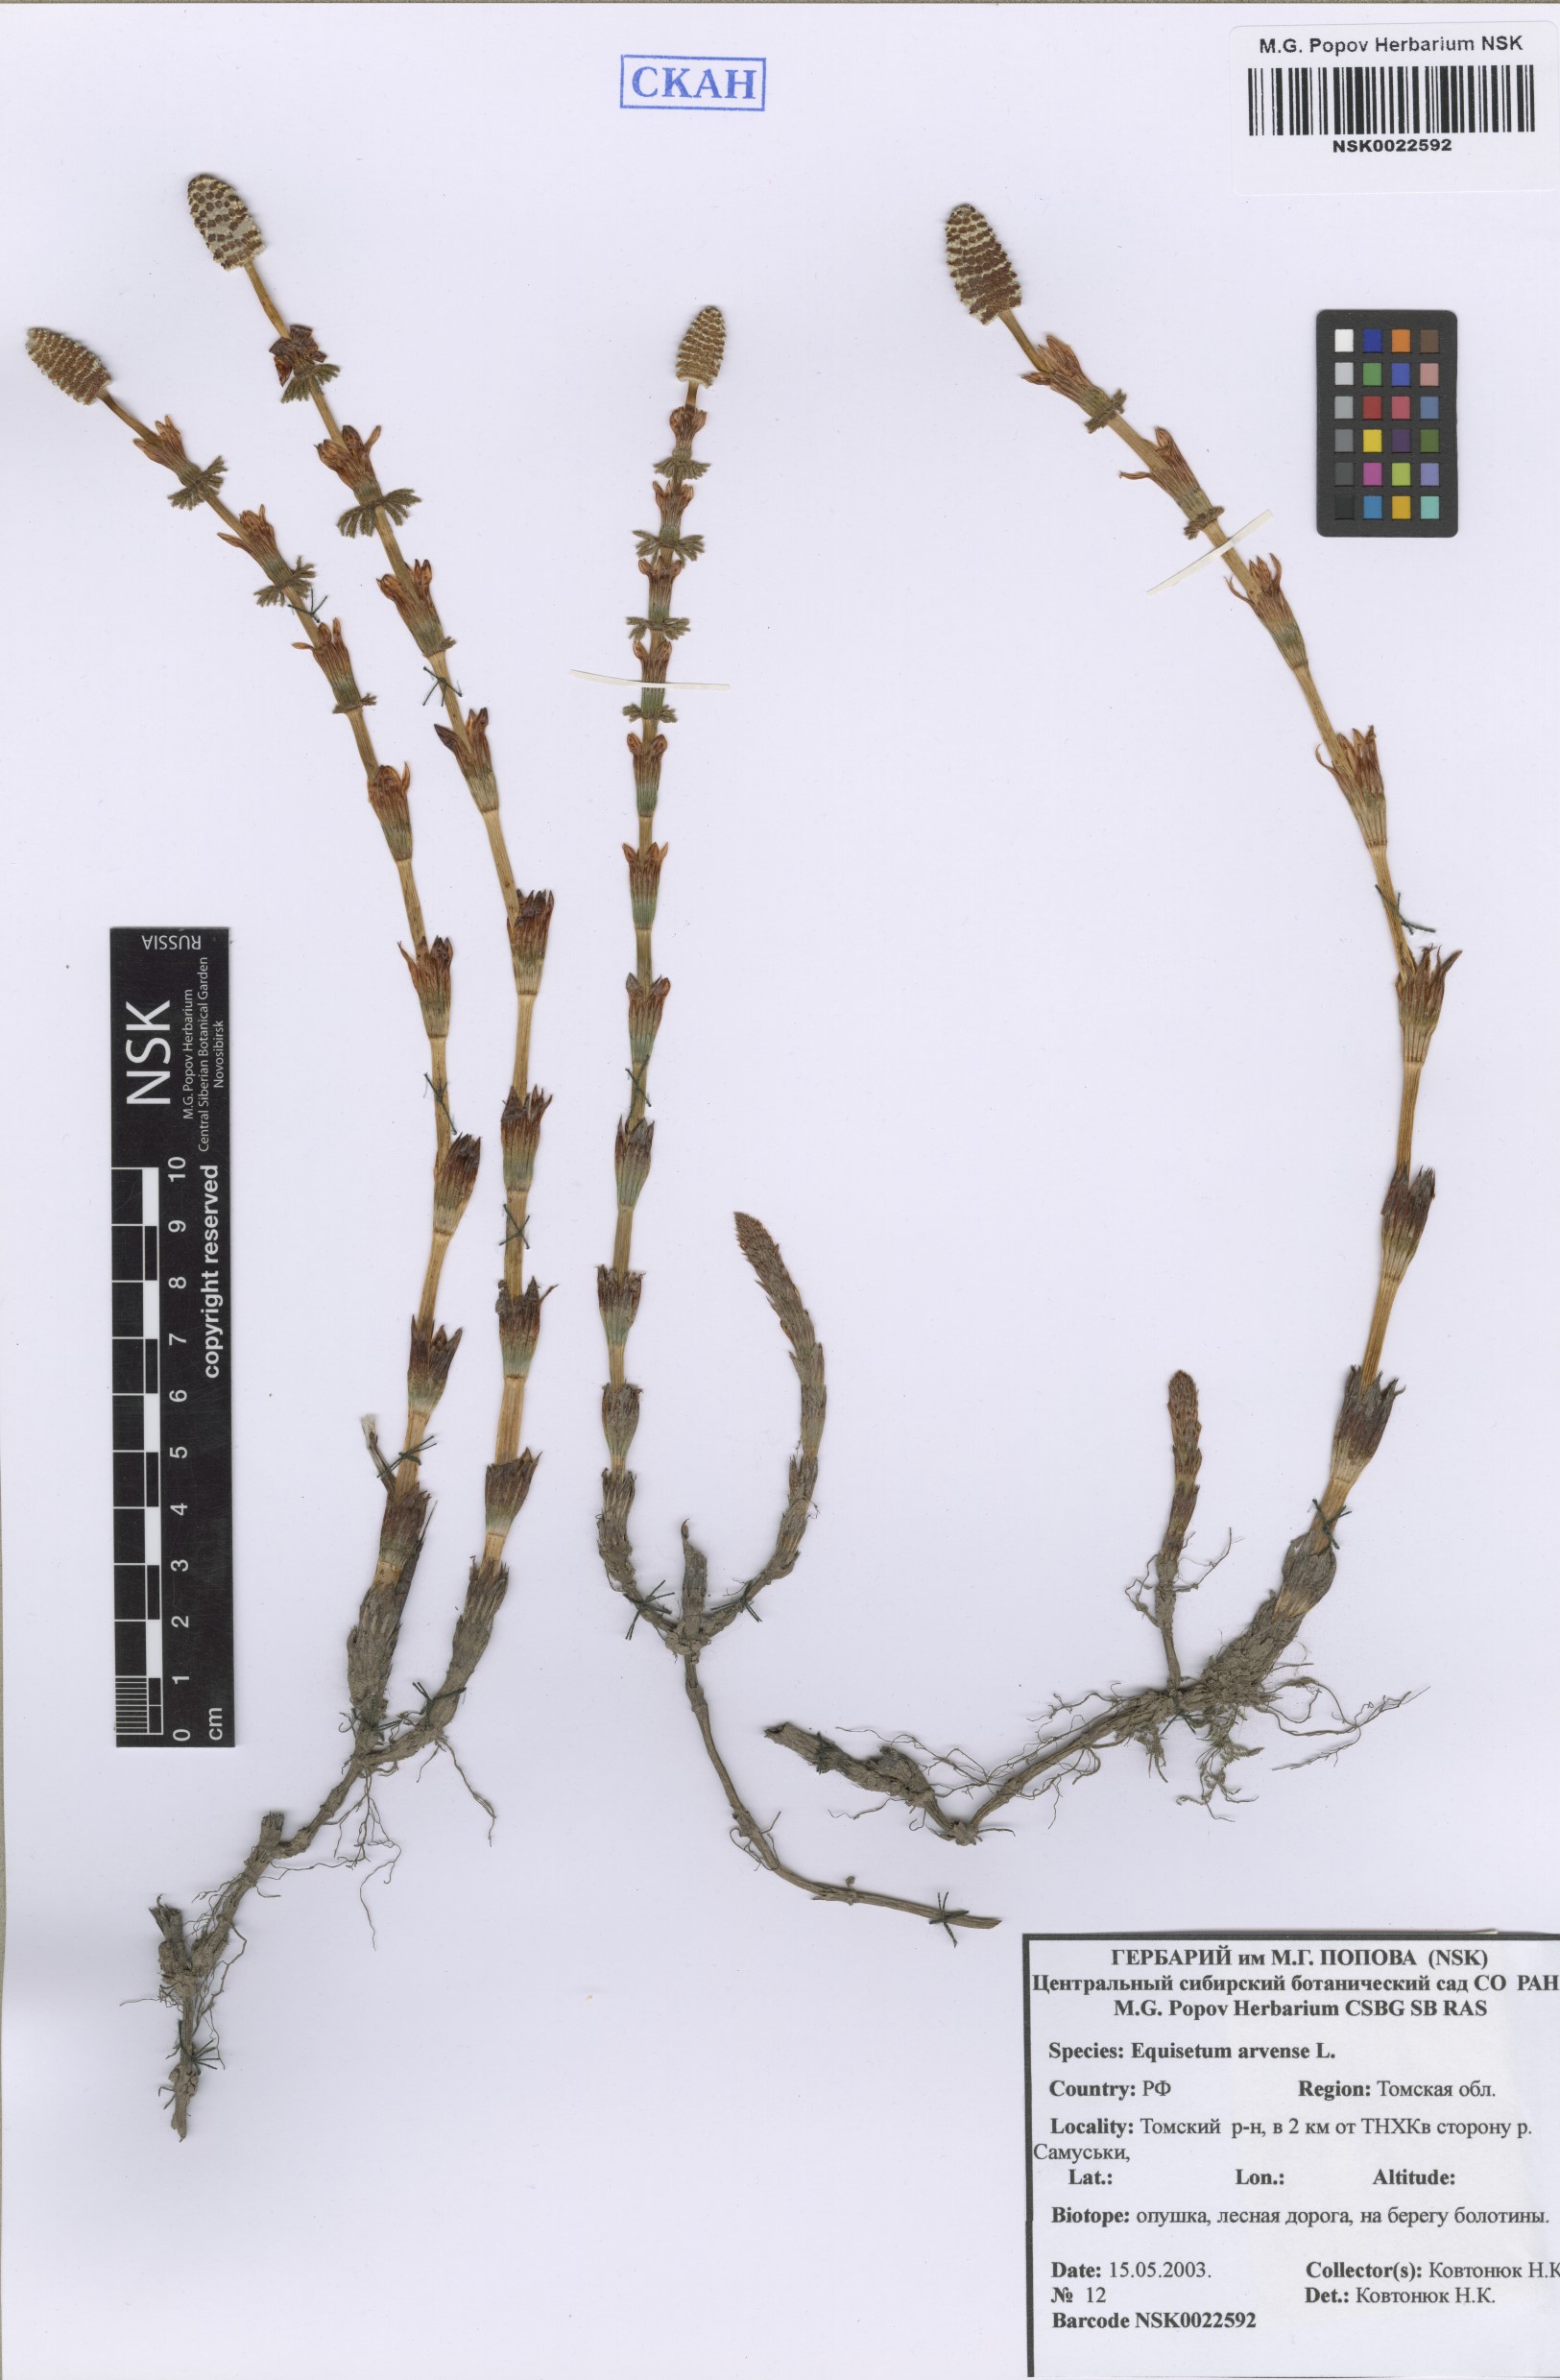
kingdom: Plantae
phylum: Tracheophyta
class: Polypodiopsida
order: Equisetales
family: Equisetaceae
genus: Equisetum
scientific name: Equisetum arvense
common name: Field horsetail
